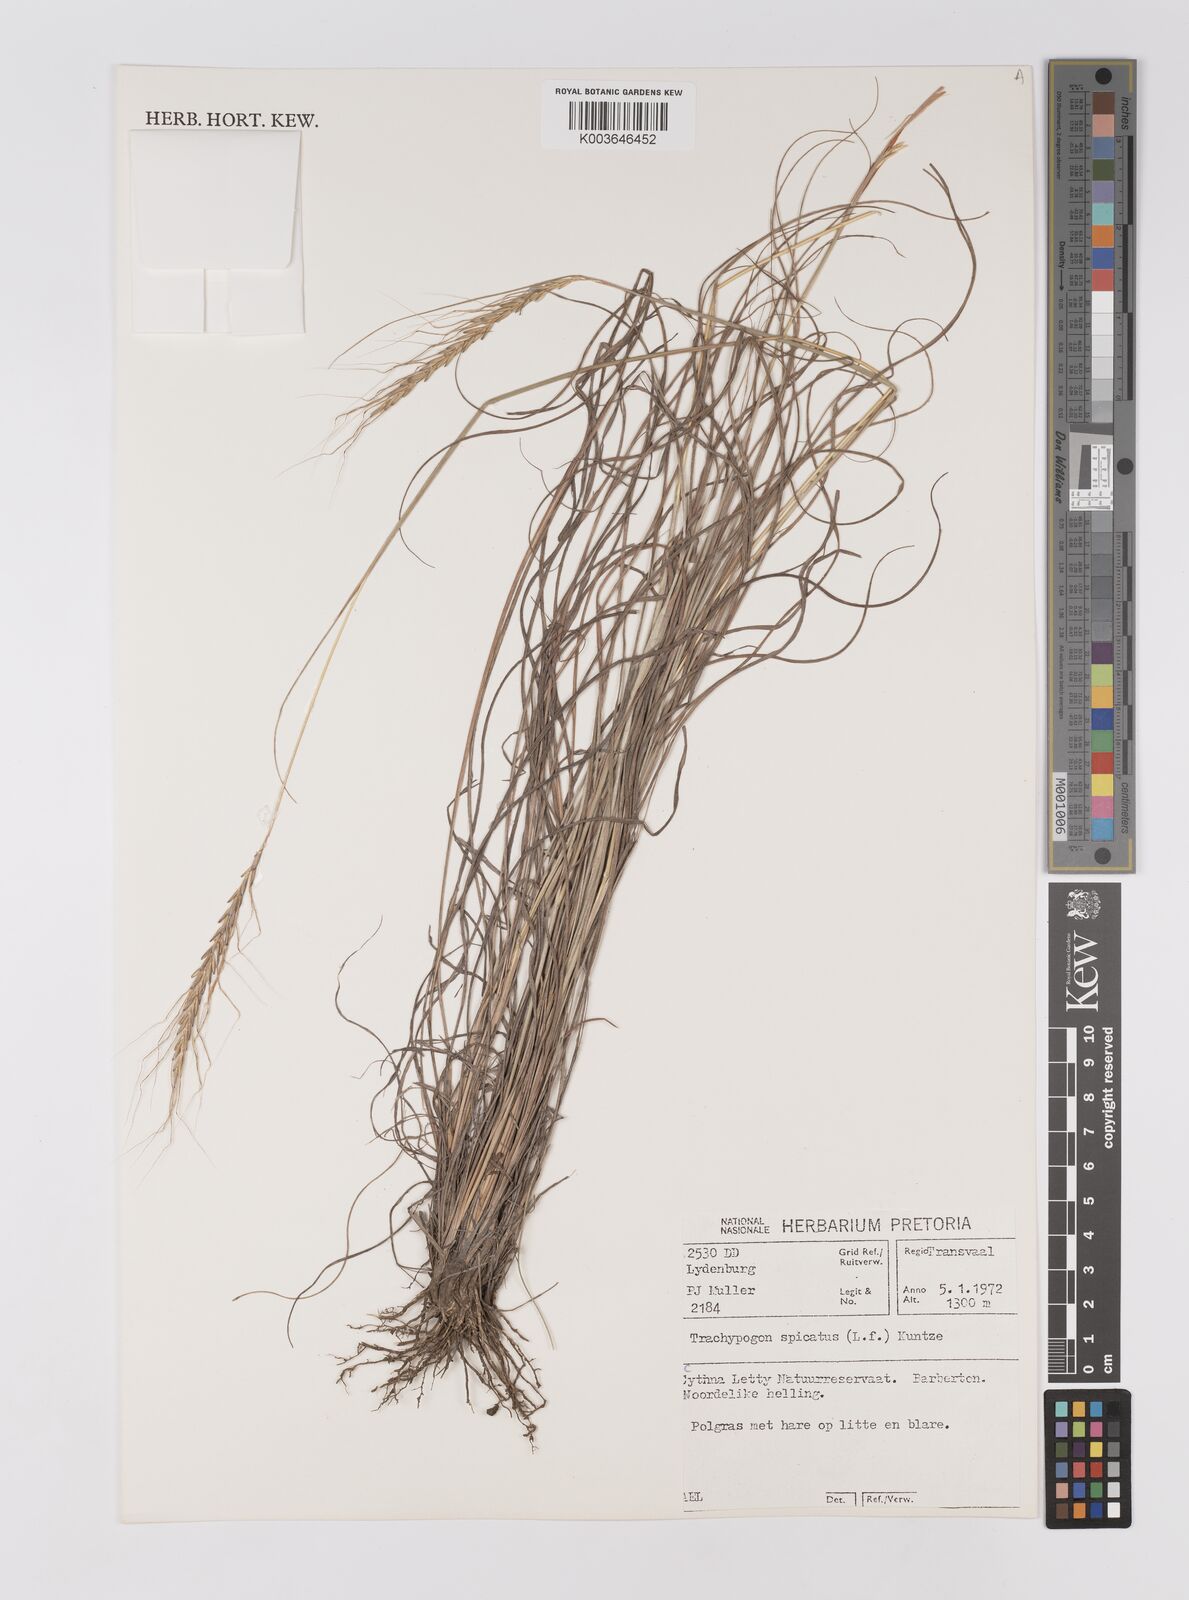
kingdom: Plantae
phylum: Tracheophyta
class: Liliopsida
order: Poales
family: Poaceae
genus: Trachypogon
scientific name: Trachypogon spicatus
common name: Crinkle-awn
